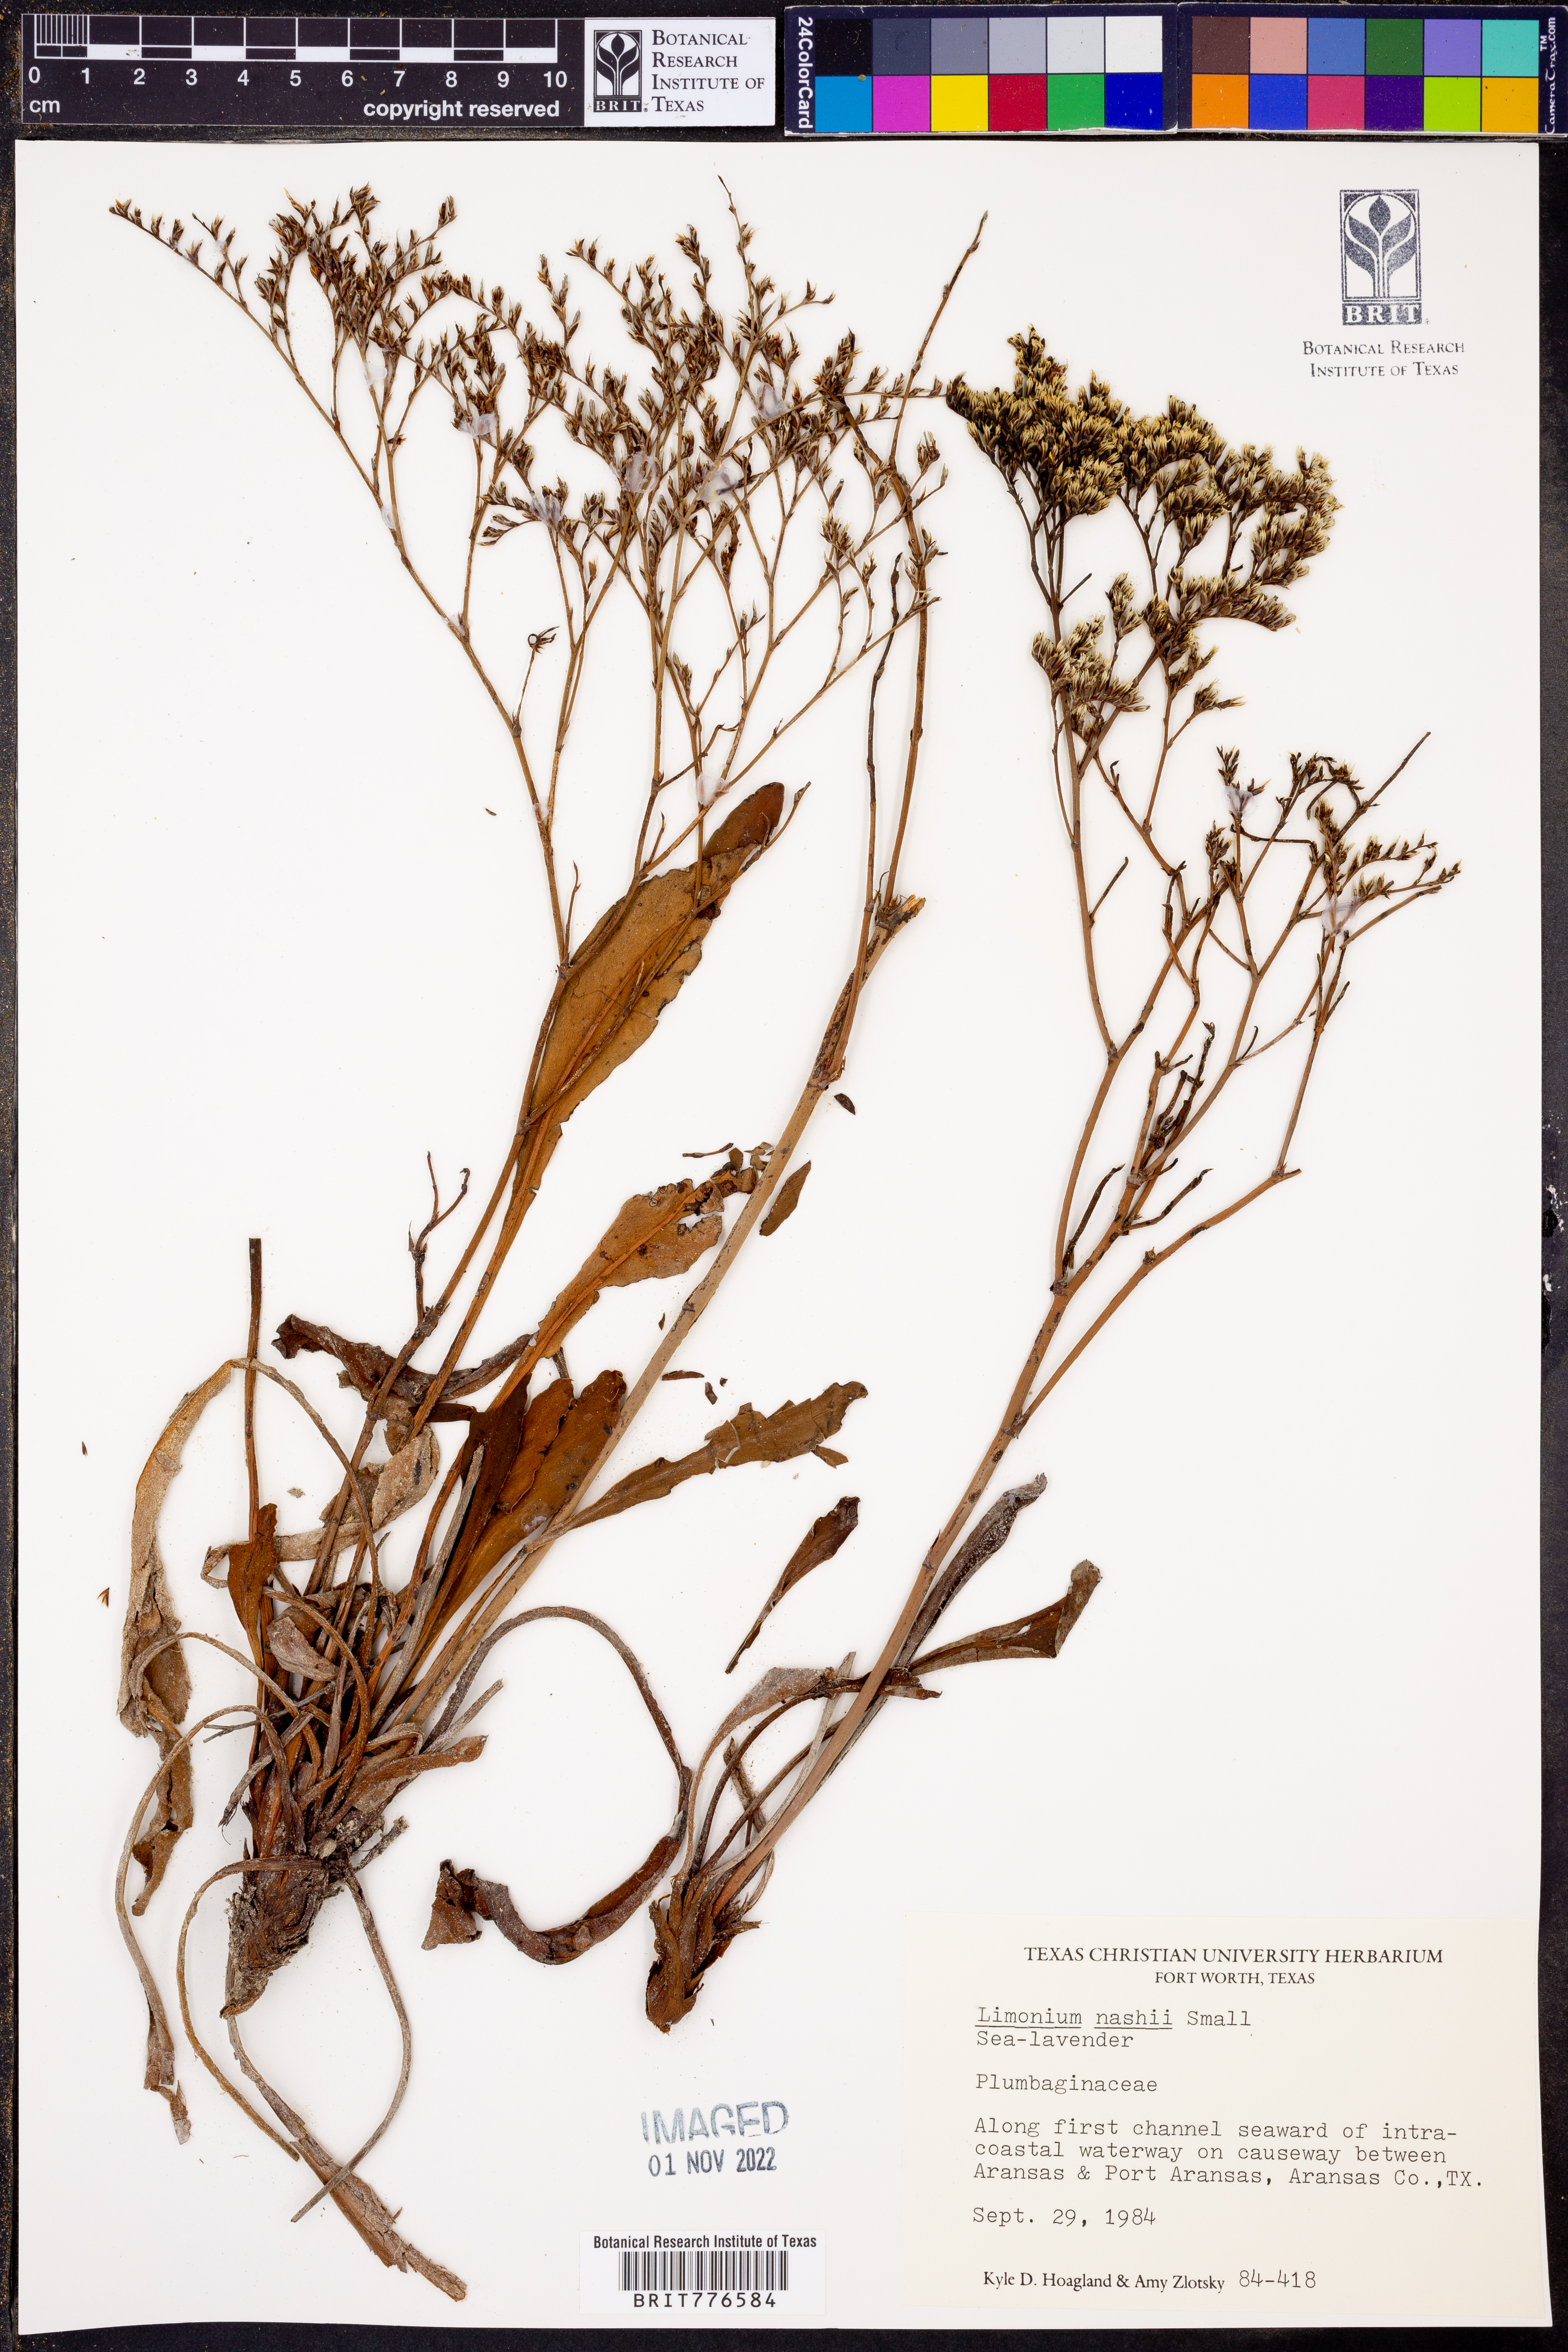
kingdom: Plantae
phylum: Tracheophyta
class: Magnoliopsida
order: Caryophyllales
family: Plumbaginaceae
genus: Limonium
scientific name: Limonium carolinianum
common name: Carolina sea lavender
